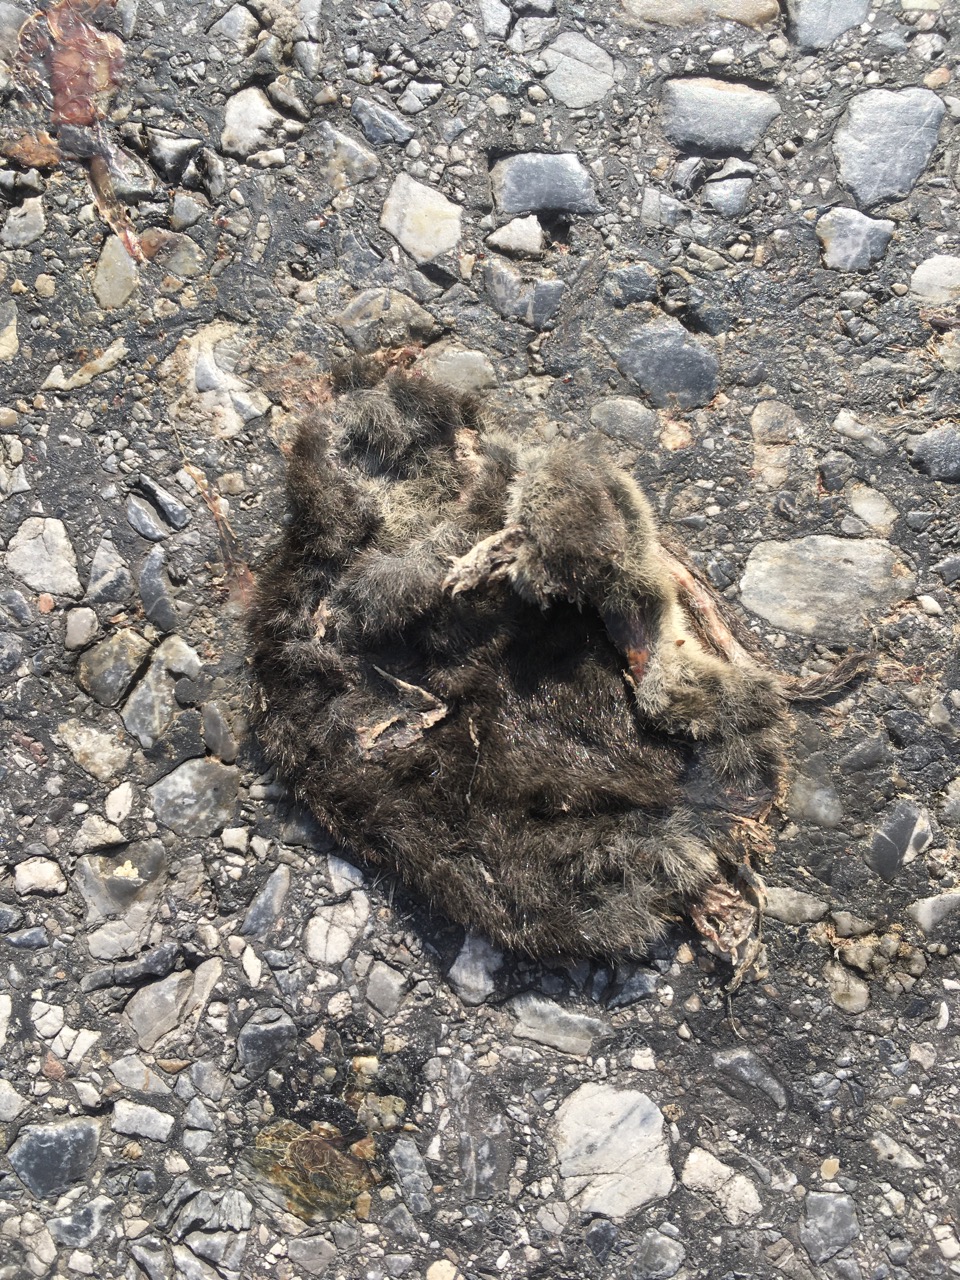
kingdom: Animalia
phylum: Chordata
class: Mammalia
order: Soricomorpha
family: Soricidae
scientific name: Soricidae
